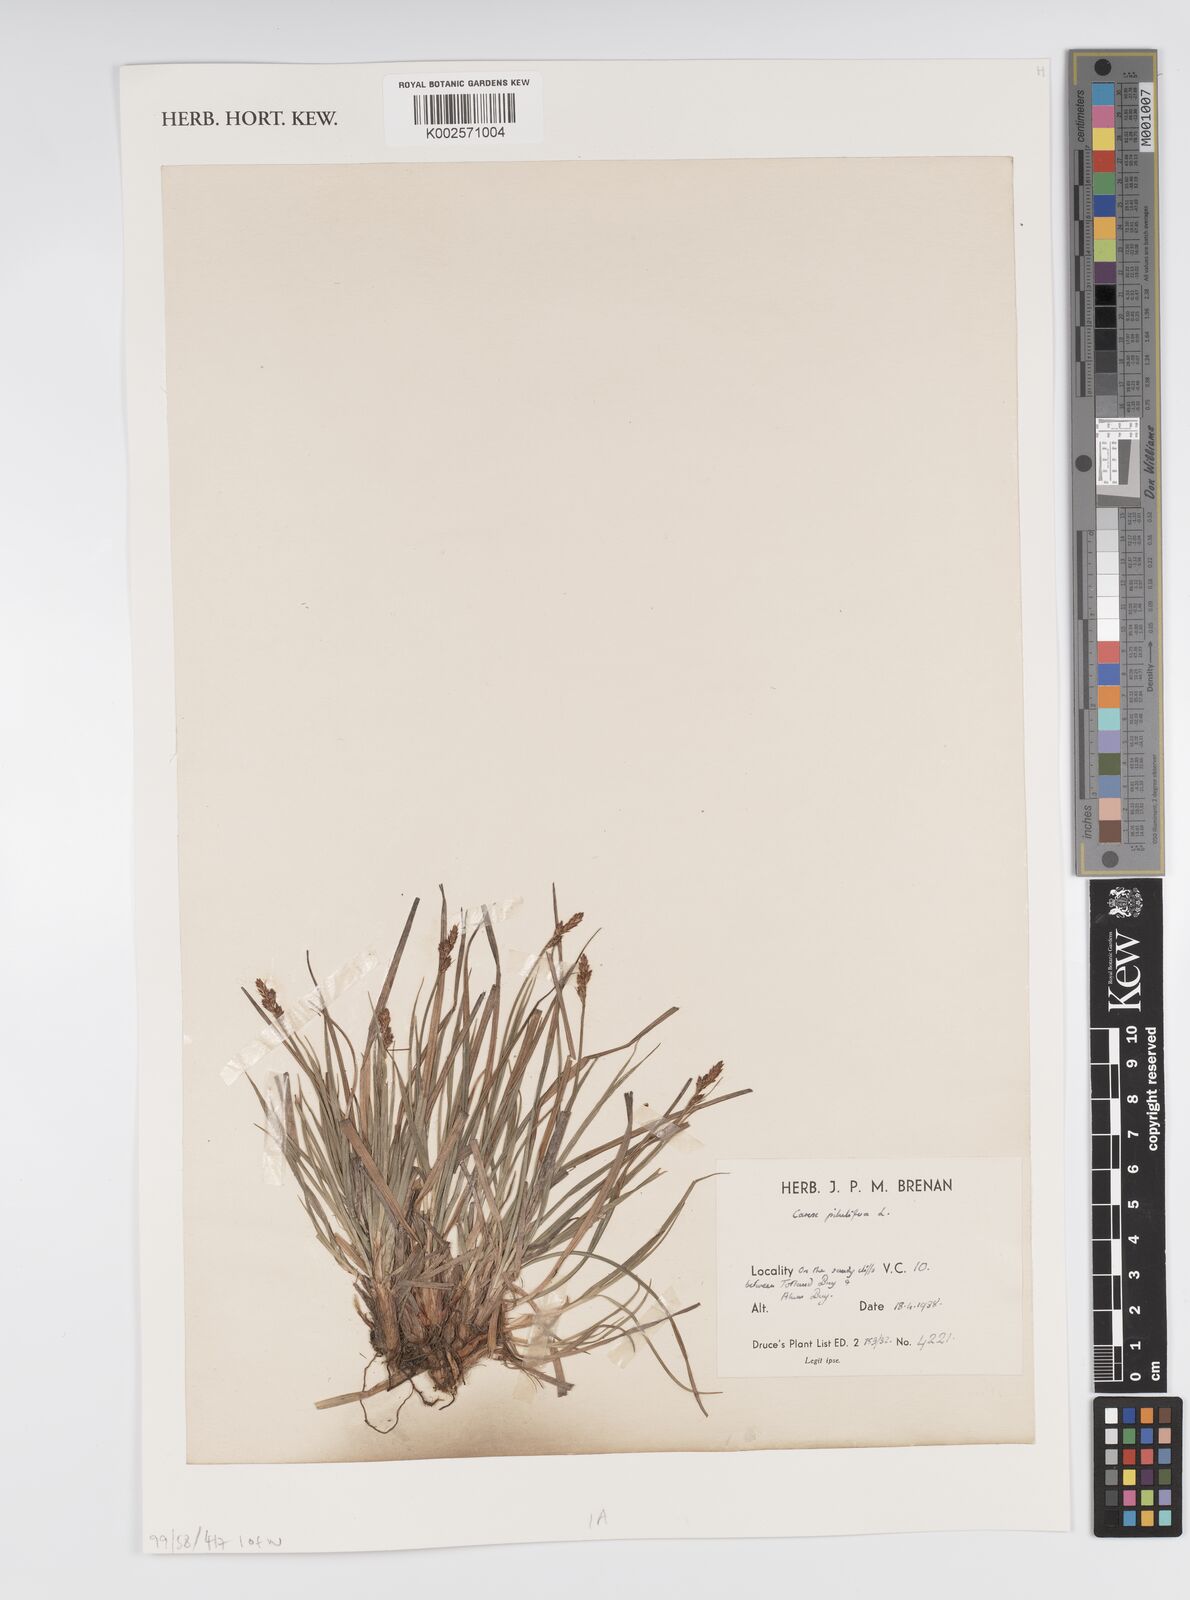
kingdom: Plantae
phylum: Tracheophyta
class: Liliopsida
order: Poales
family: Cyperaceae
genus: Carex
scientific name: Carex praecox
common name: Early sedge
